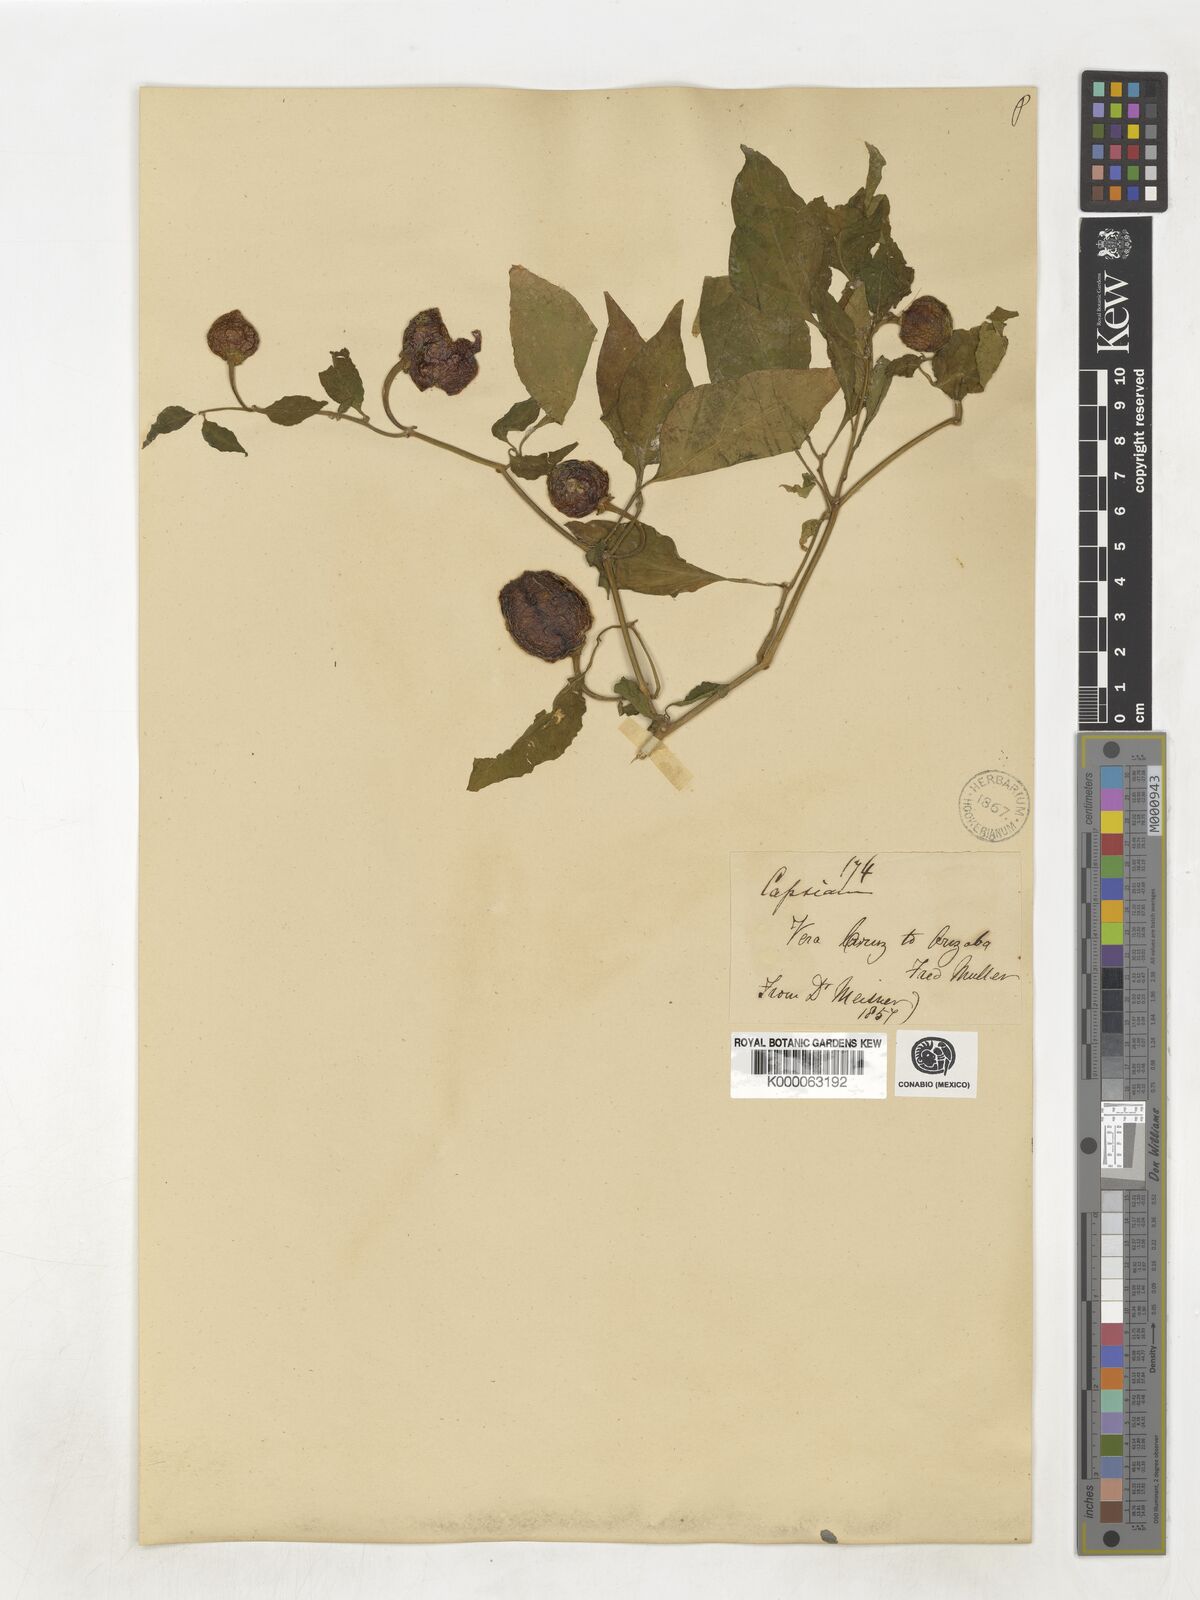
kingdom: Plantae
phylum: Tracheophyta
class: Magnoliopsida
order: Solanales
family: Solanaceae
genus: Capsicum
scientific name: Capsicum
